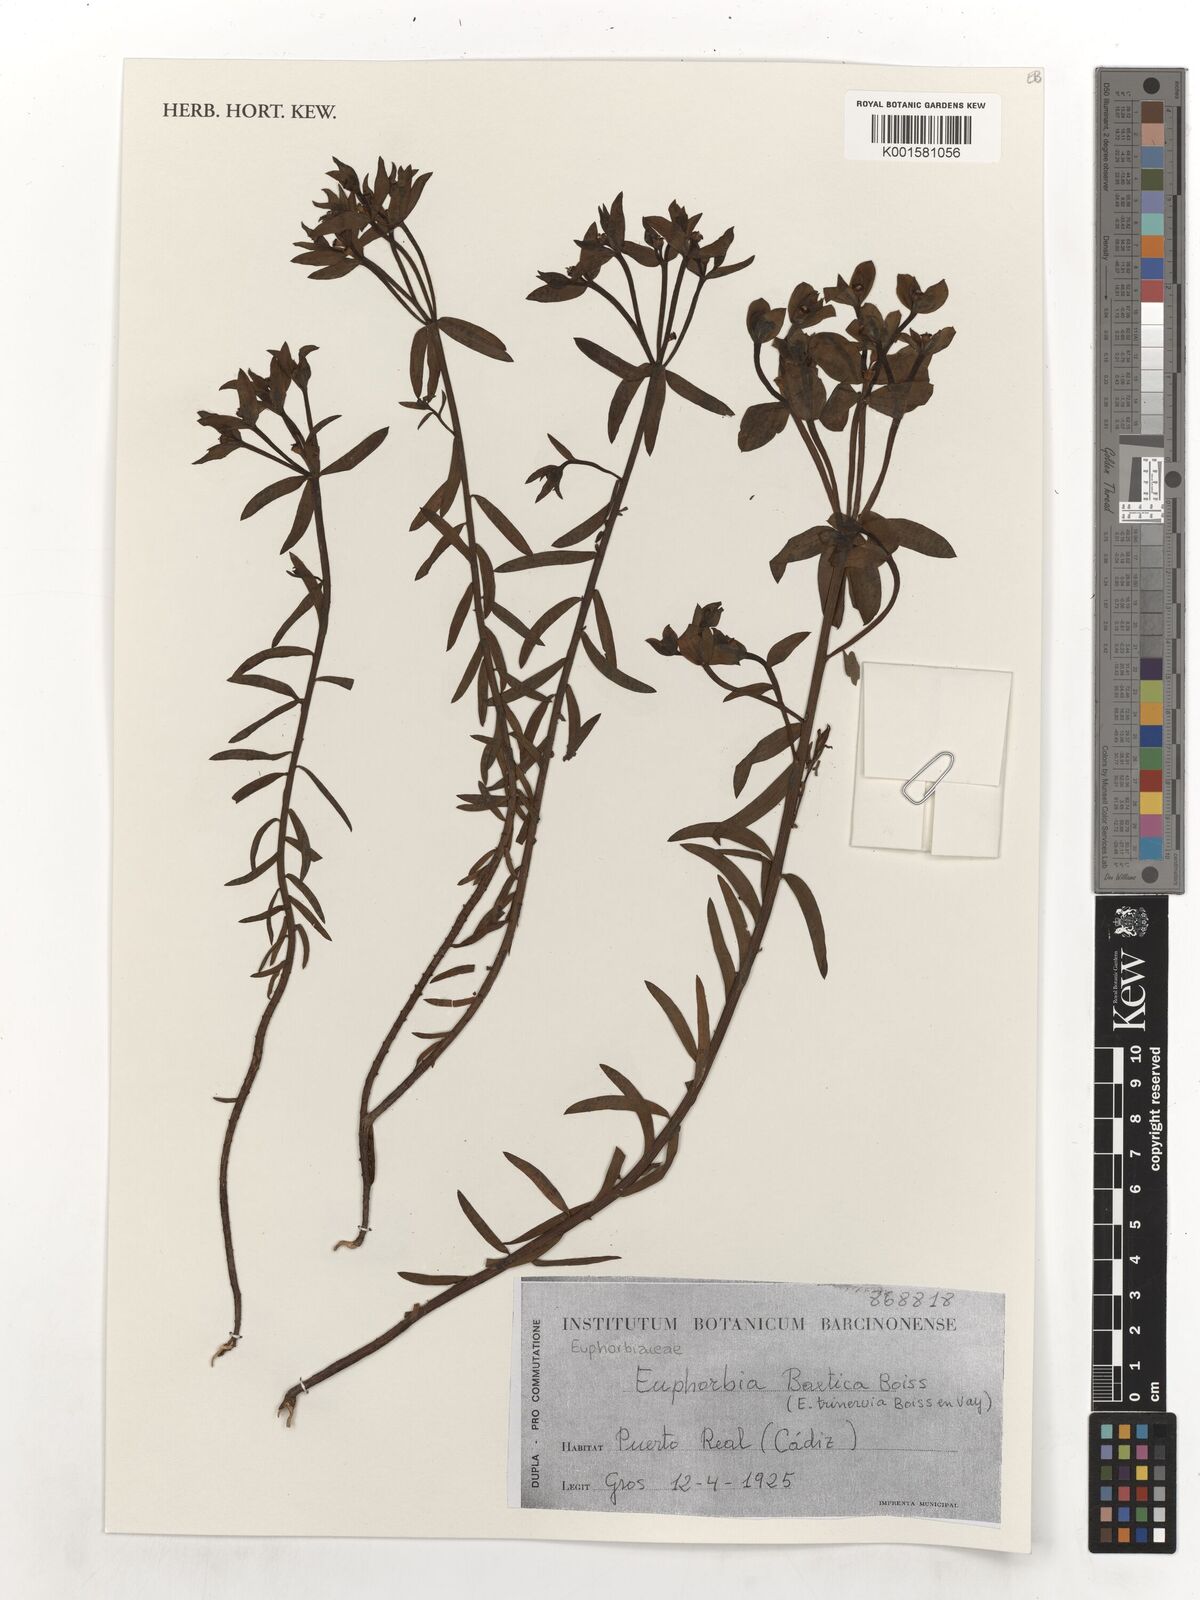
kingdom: Plantae
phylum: Tracheophyta
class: Magnoliopsida
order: Malpighiales
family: Euphorbiaceae
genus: Euphorbia
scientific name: Euphorbia boetica
